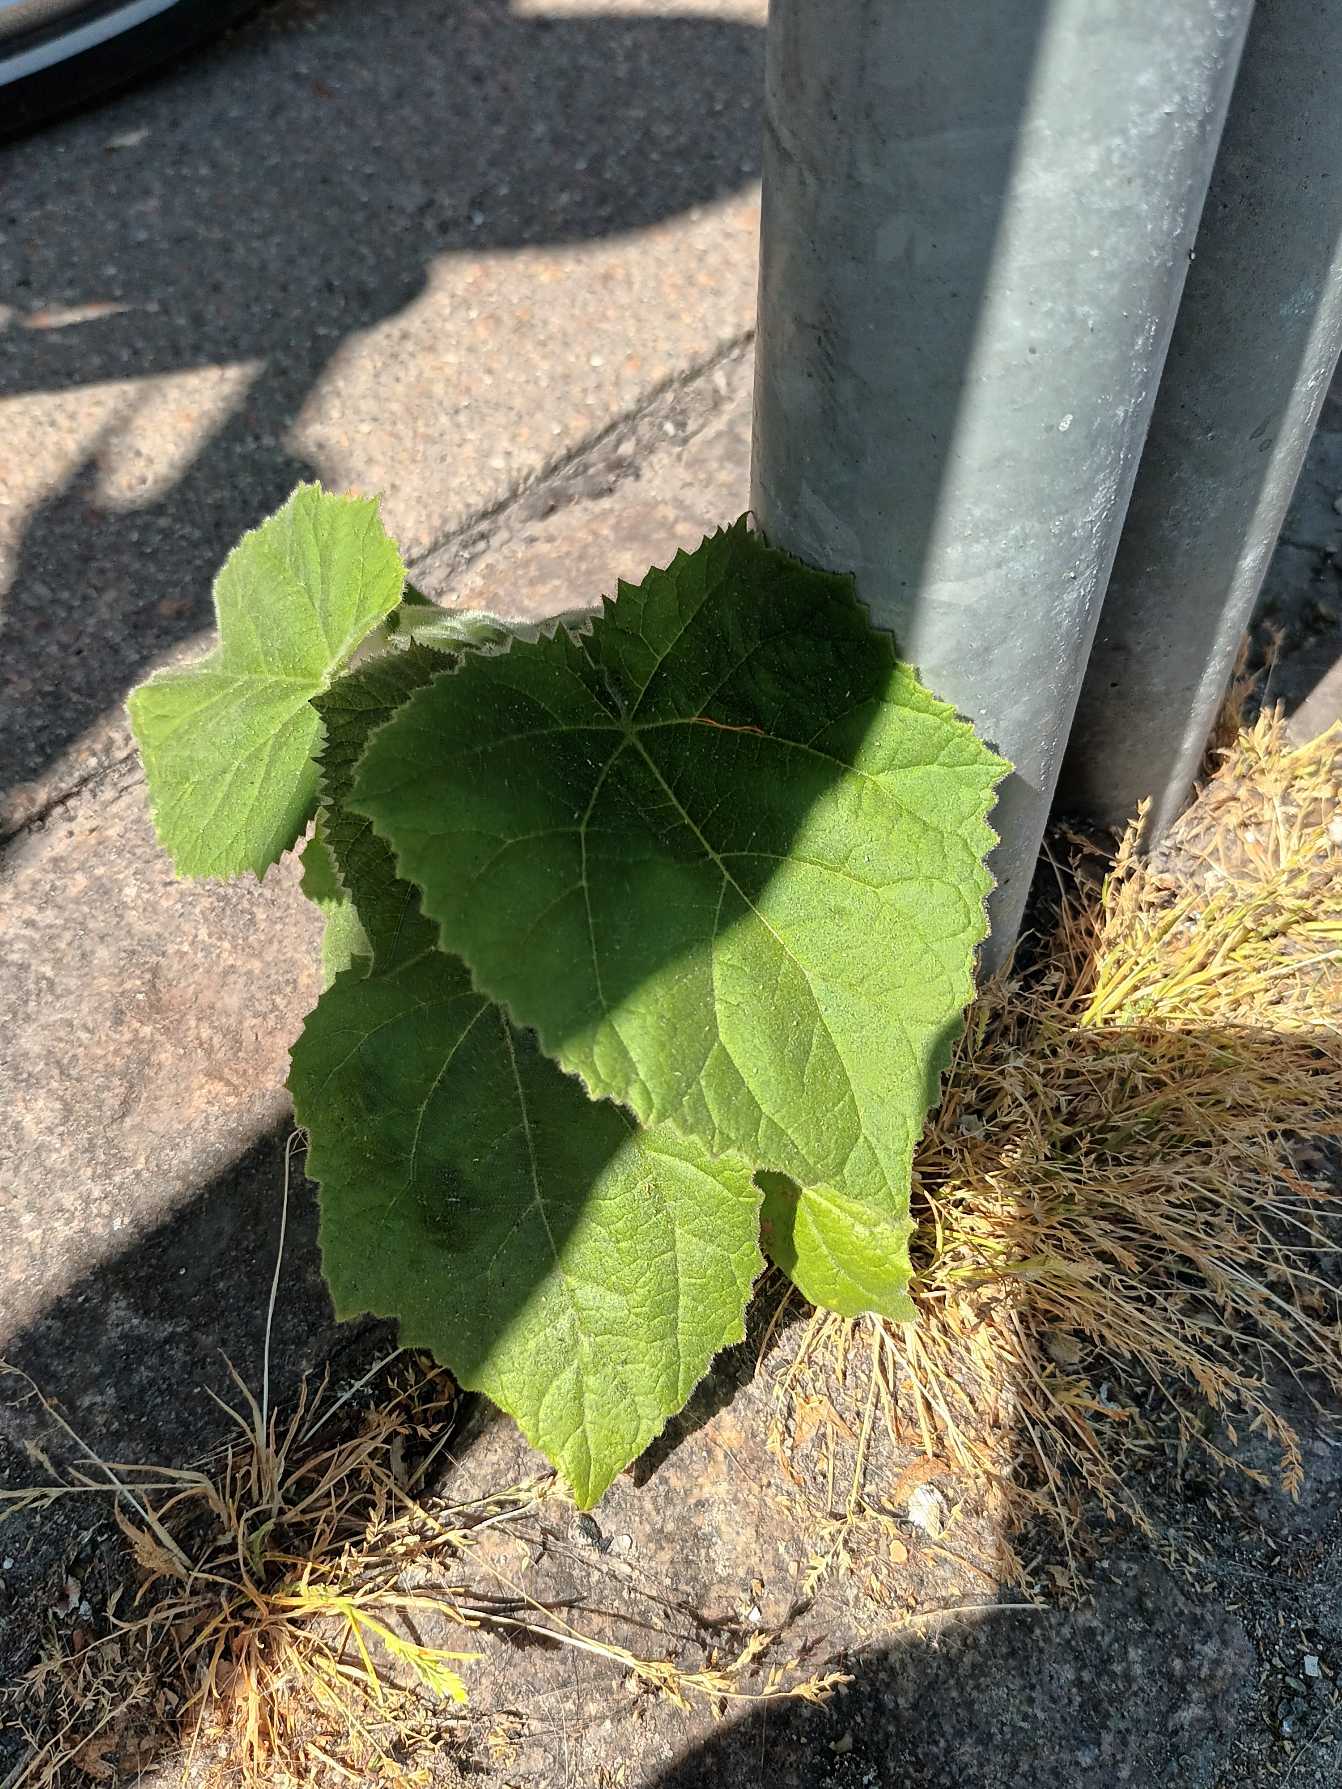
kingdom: Plantae
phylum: Tracheophyta
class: Magnoliopsida
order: Lamiales
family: Paulowniaceae
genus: Paulownia
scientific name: Paulownia tomentosa
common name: Kejsertræ
